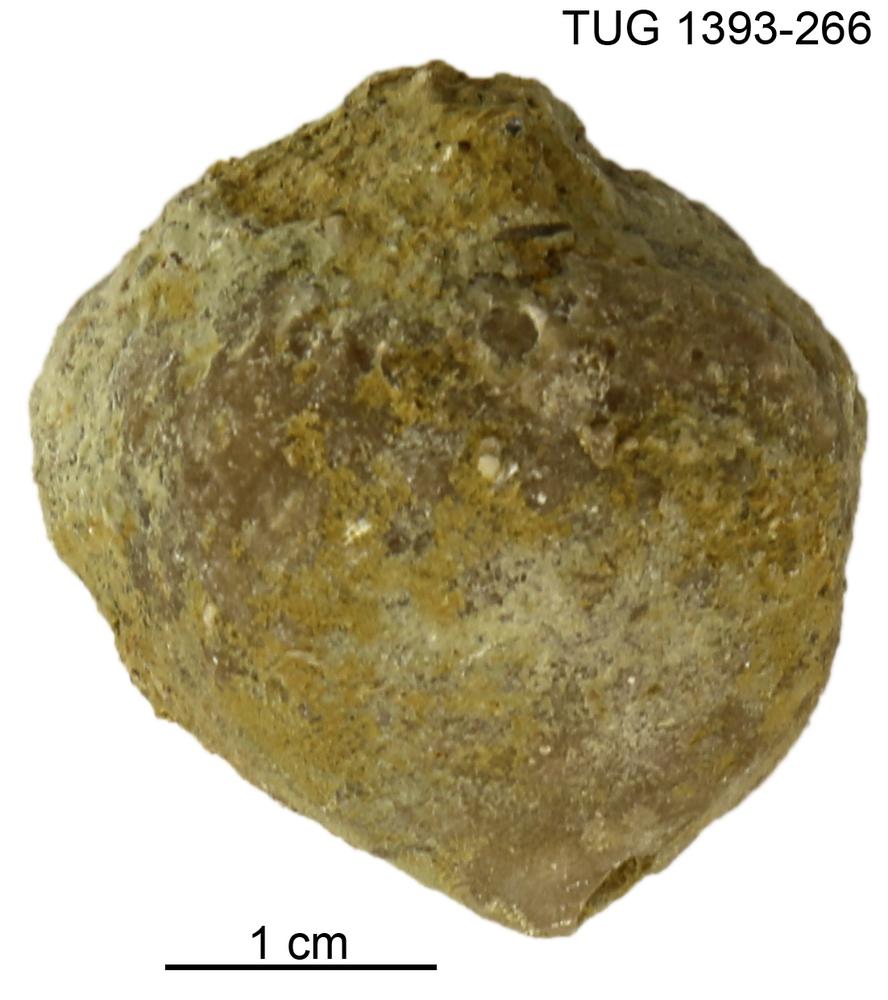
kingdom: Animalia
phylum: Bryozoa
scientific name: Bryozoa
